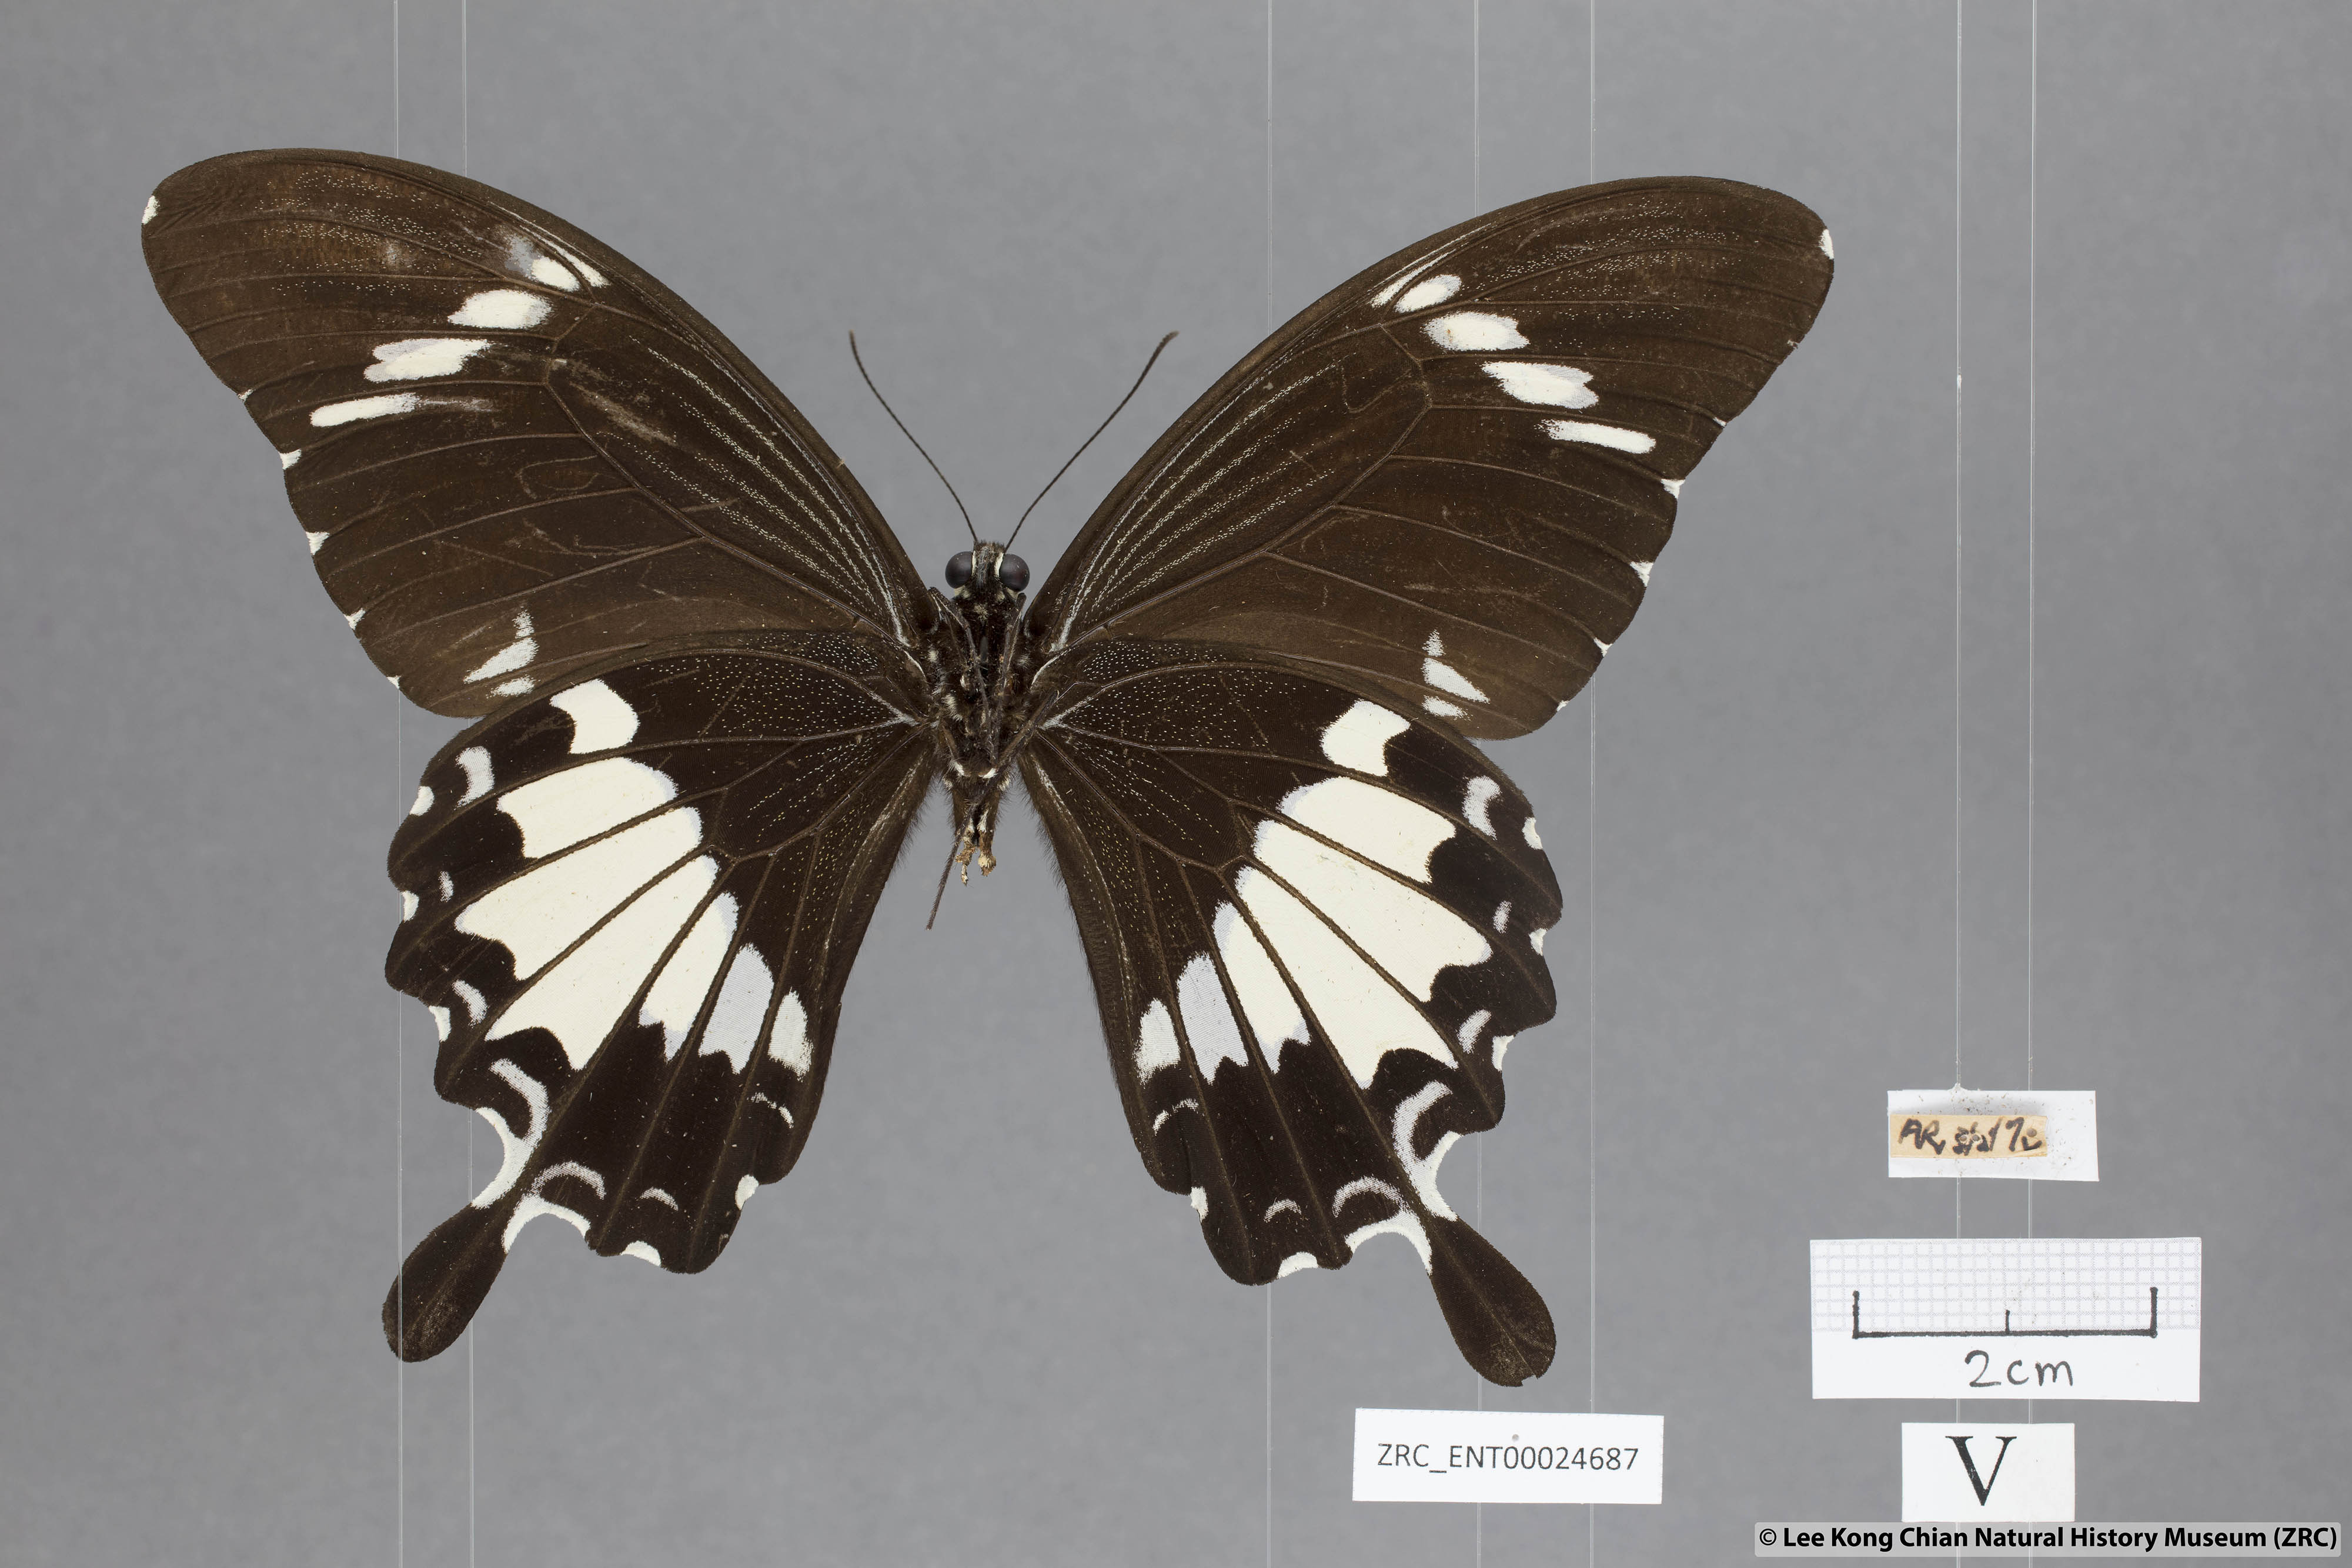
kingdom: Animalia
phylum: Arthropoda
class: Insecta
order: Lepidoptera
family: Papilionidae
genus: Papilio
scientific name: Papilio nephelus
